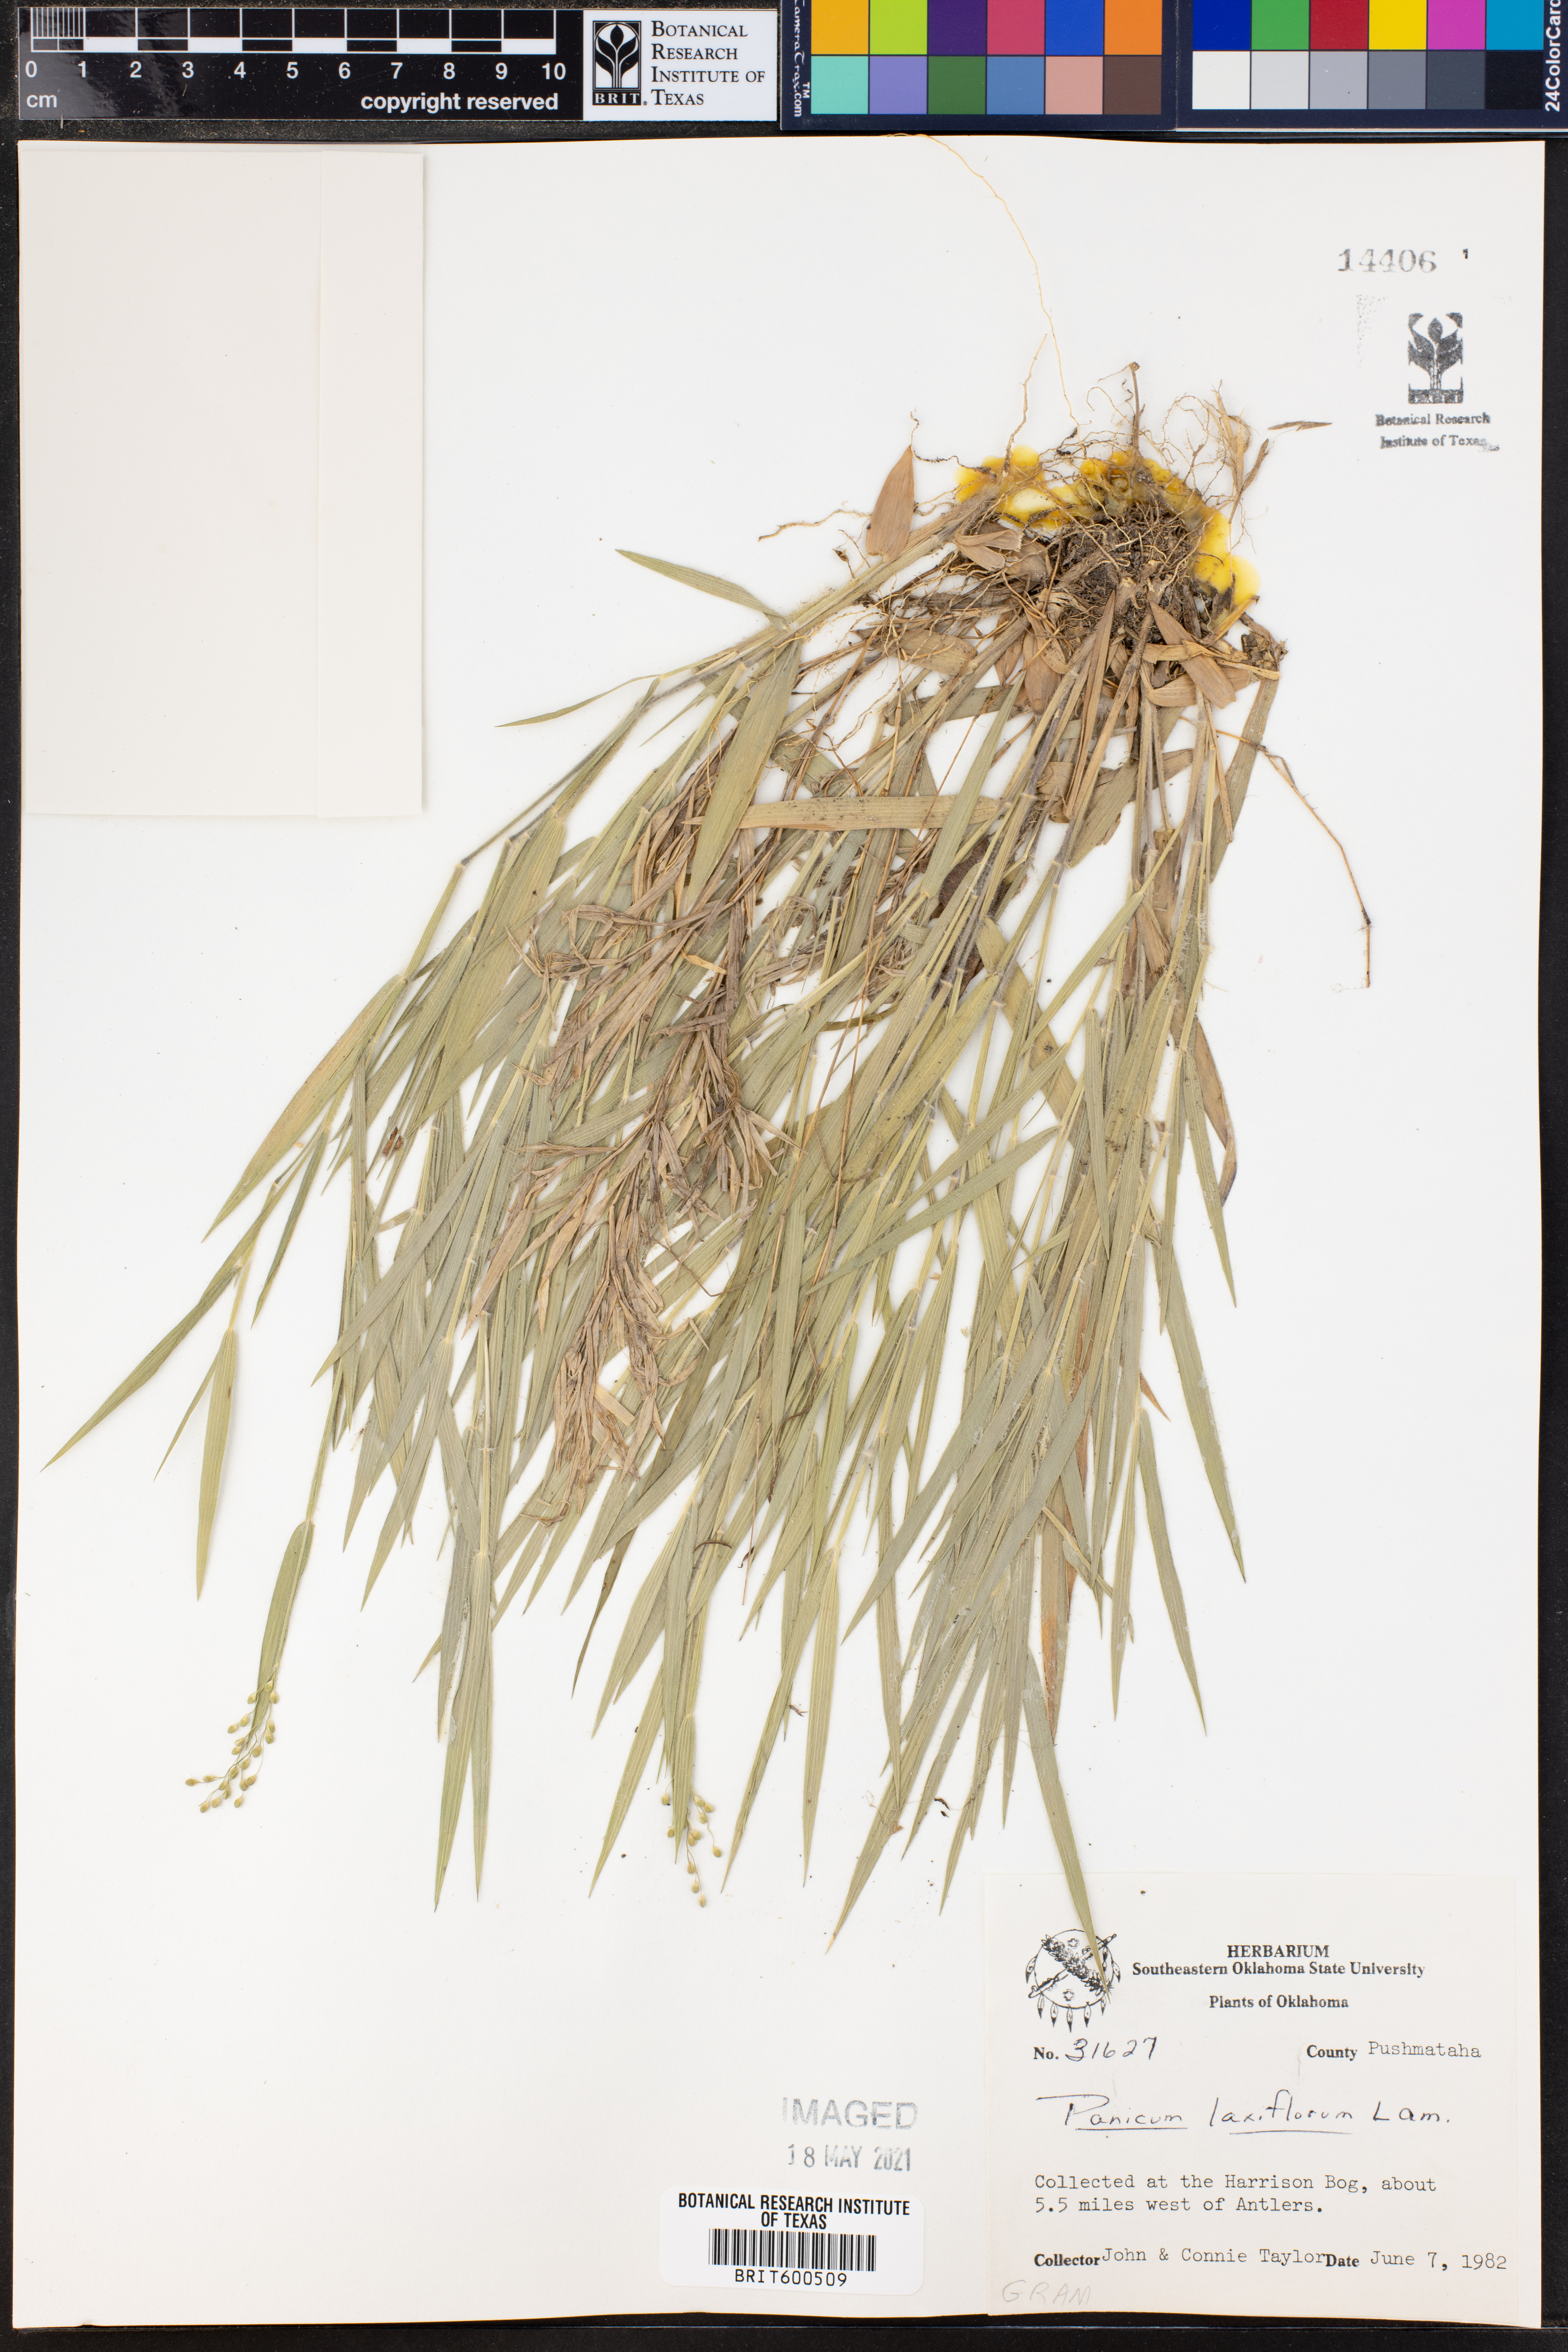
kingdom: Plantae
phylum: Tracheophyta
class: Liliopsida
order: Poales
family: Poaceae
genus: Dichanthelium
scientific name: Dichanthelium laxiflorum
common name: Soft-tuft panic grass
